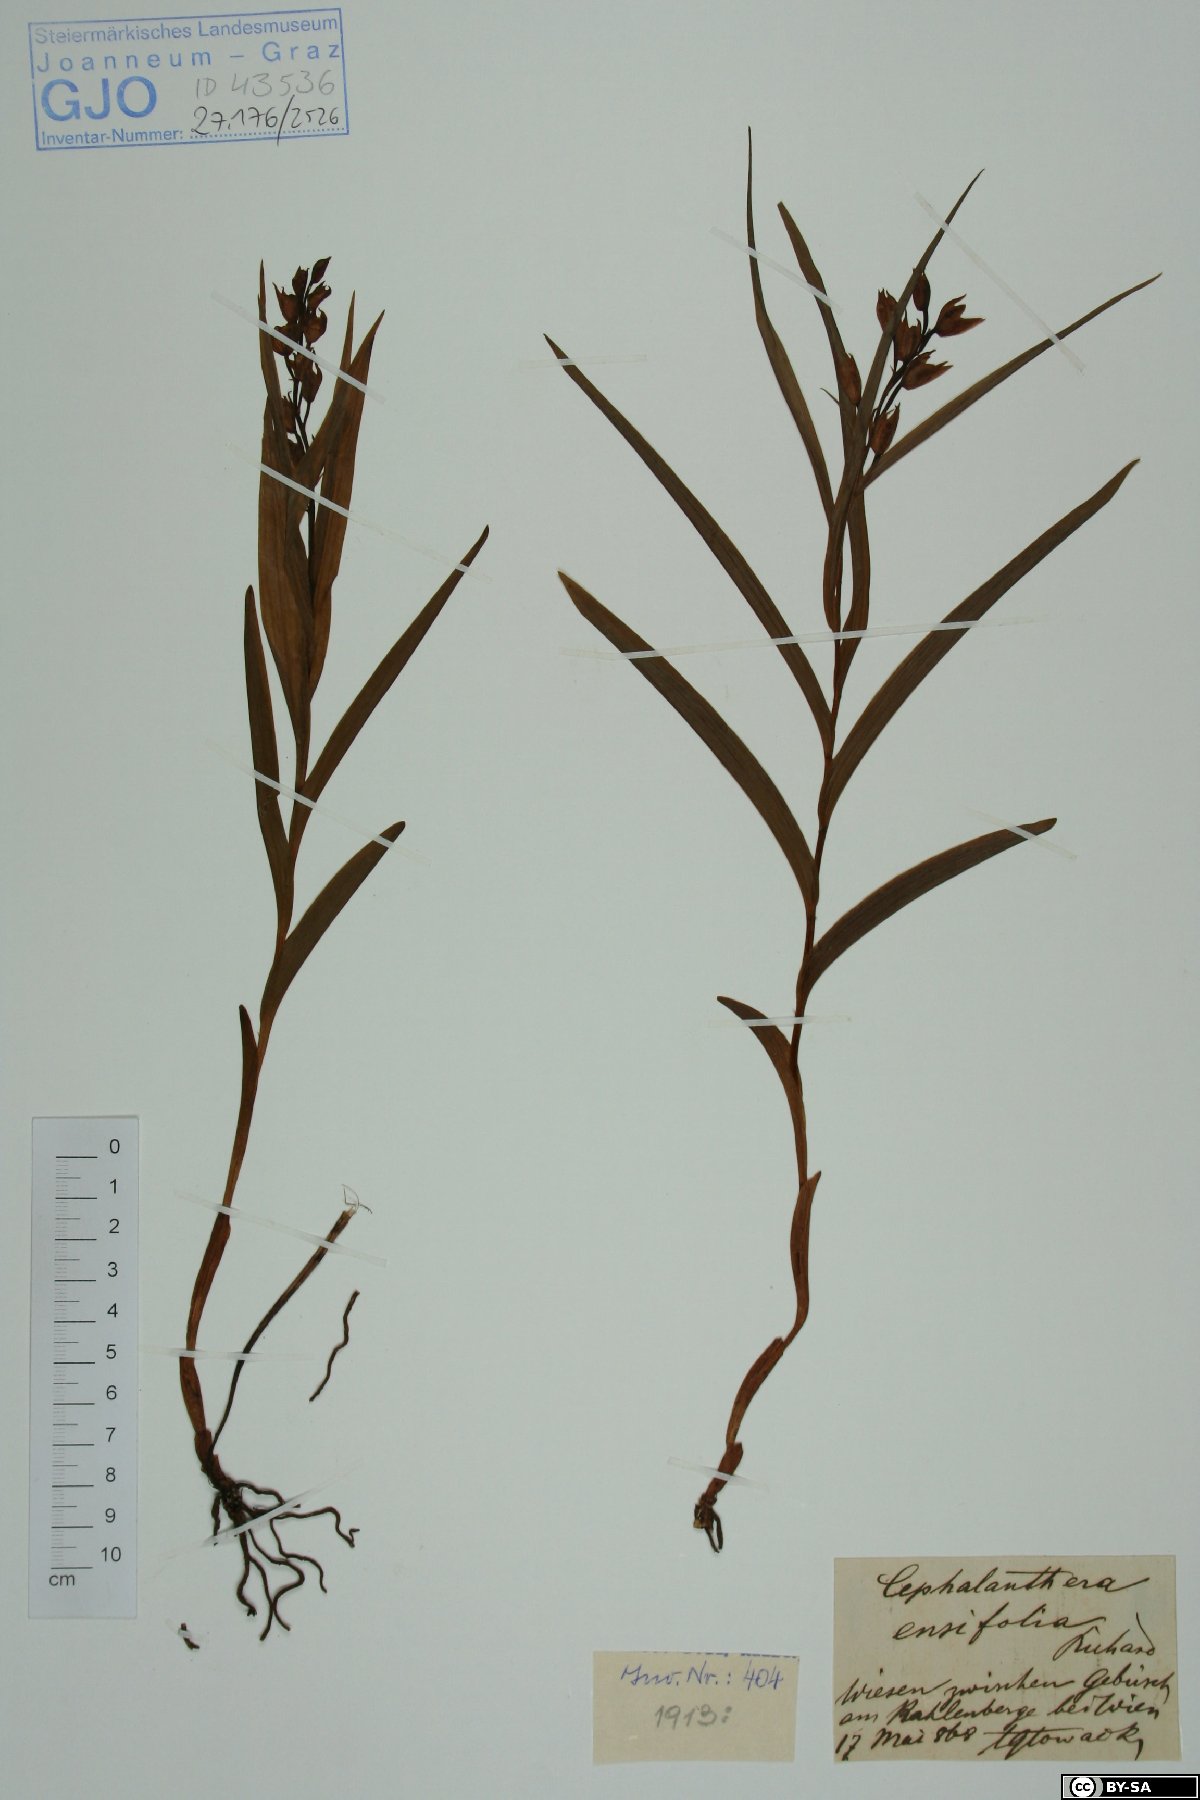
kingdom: Plantae
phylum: Tracheophyta
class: Liliopsida
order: Asparagales
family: Orchidaceae
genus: Cephalanthera
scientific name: Cephalanthera longifolia
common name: Narrow-leaved helleborine
